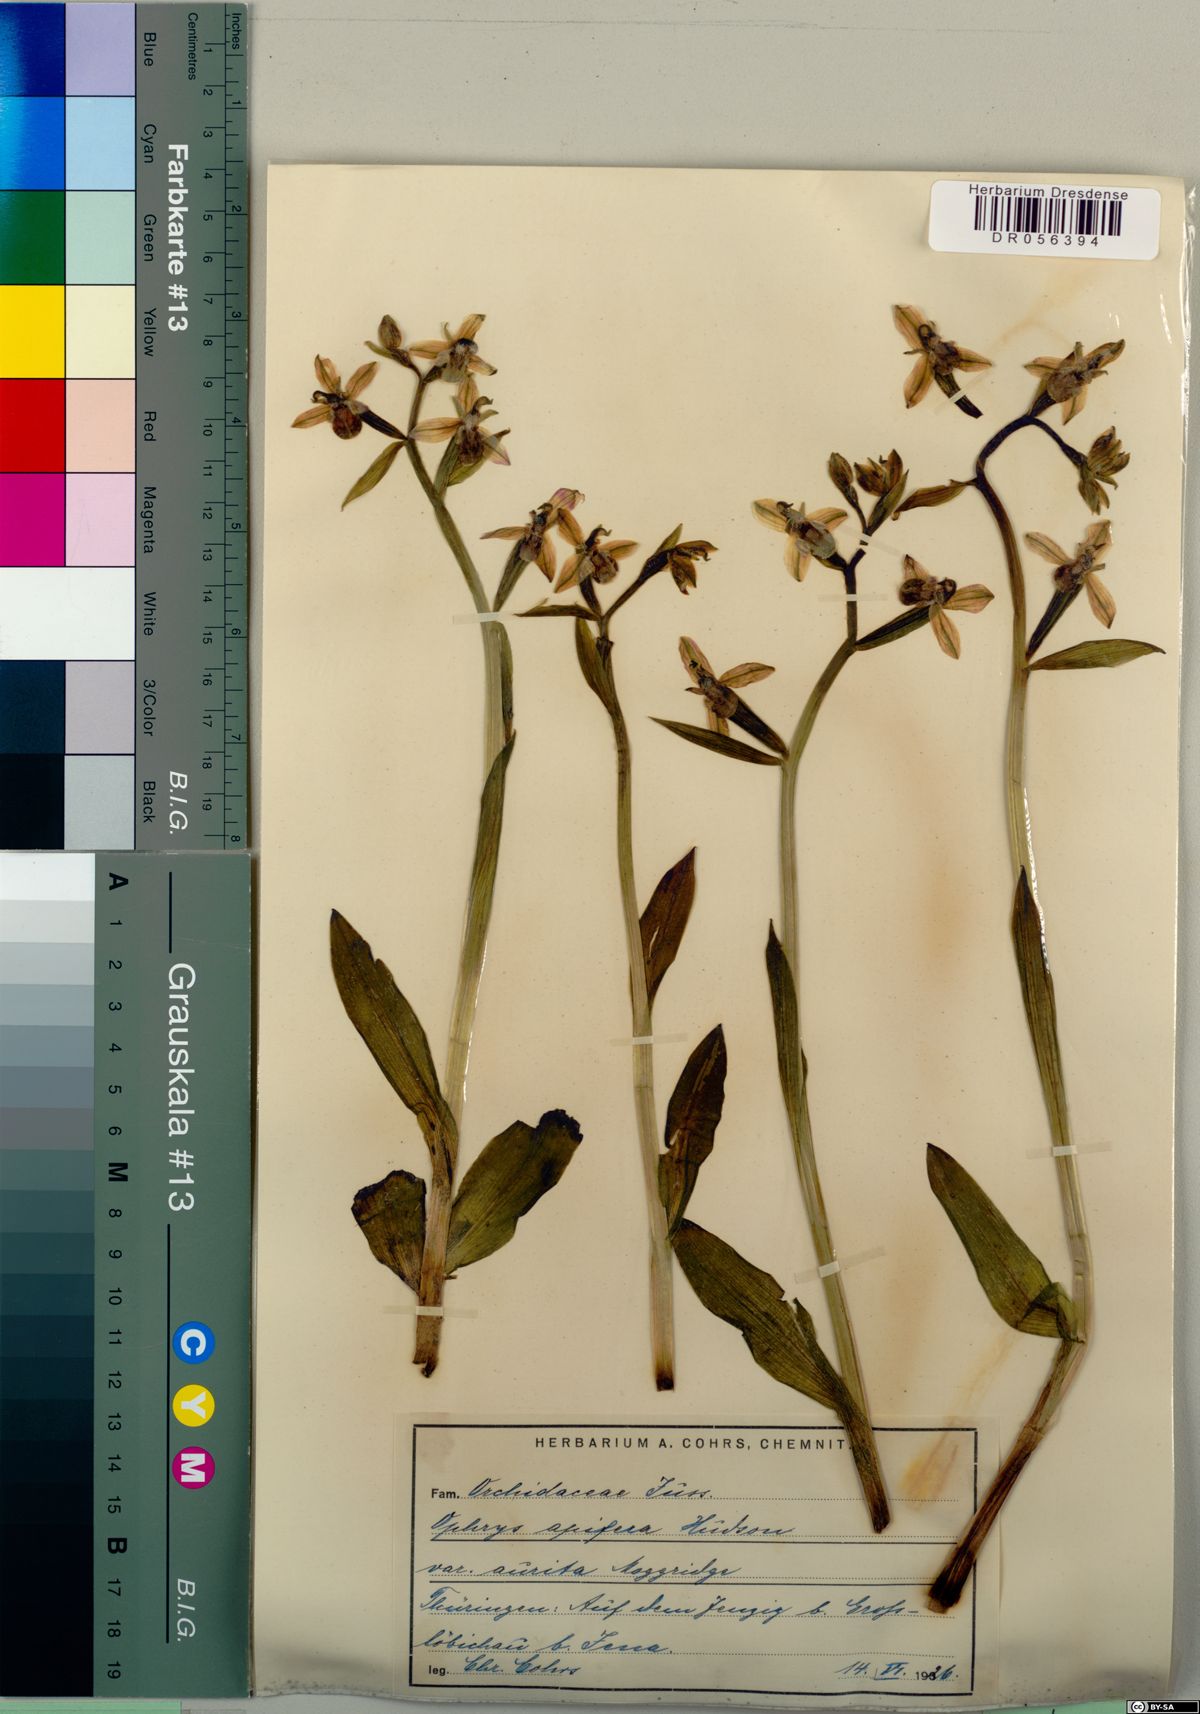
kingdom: Plantae
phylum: Tracheophyta
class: Liliopsida
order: Asparagales
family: Orchidaceae
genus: Ophrys
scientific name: Ophrys apifera
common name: Bee orchid
